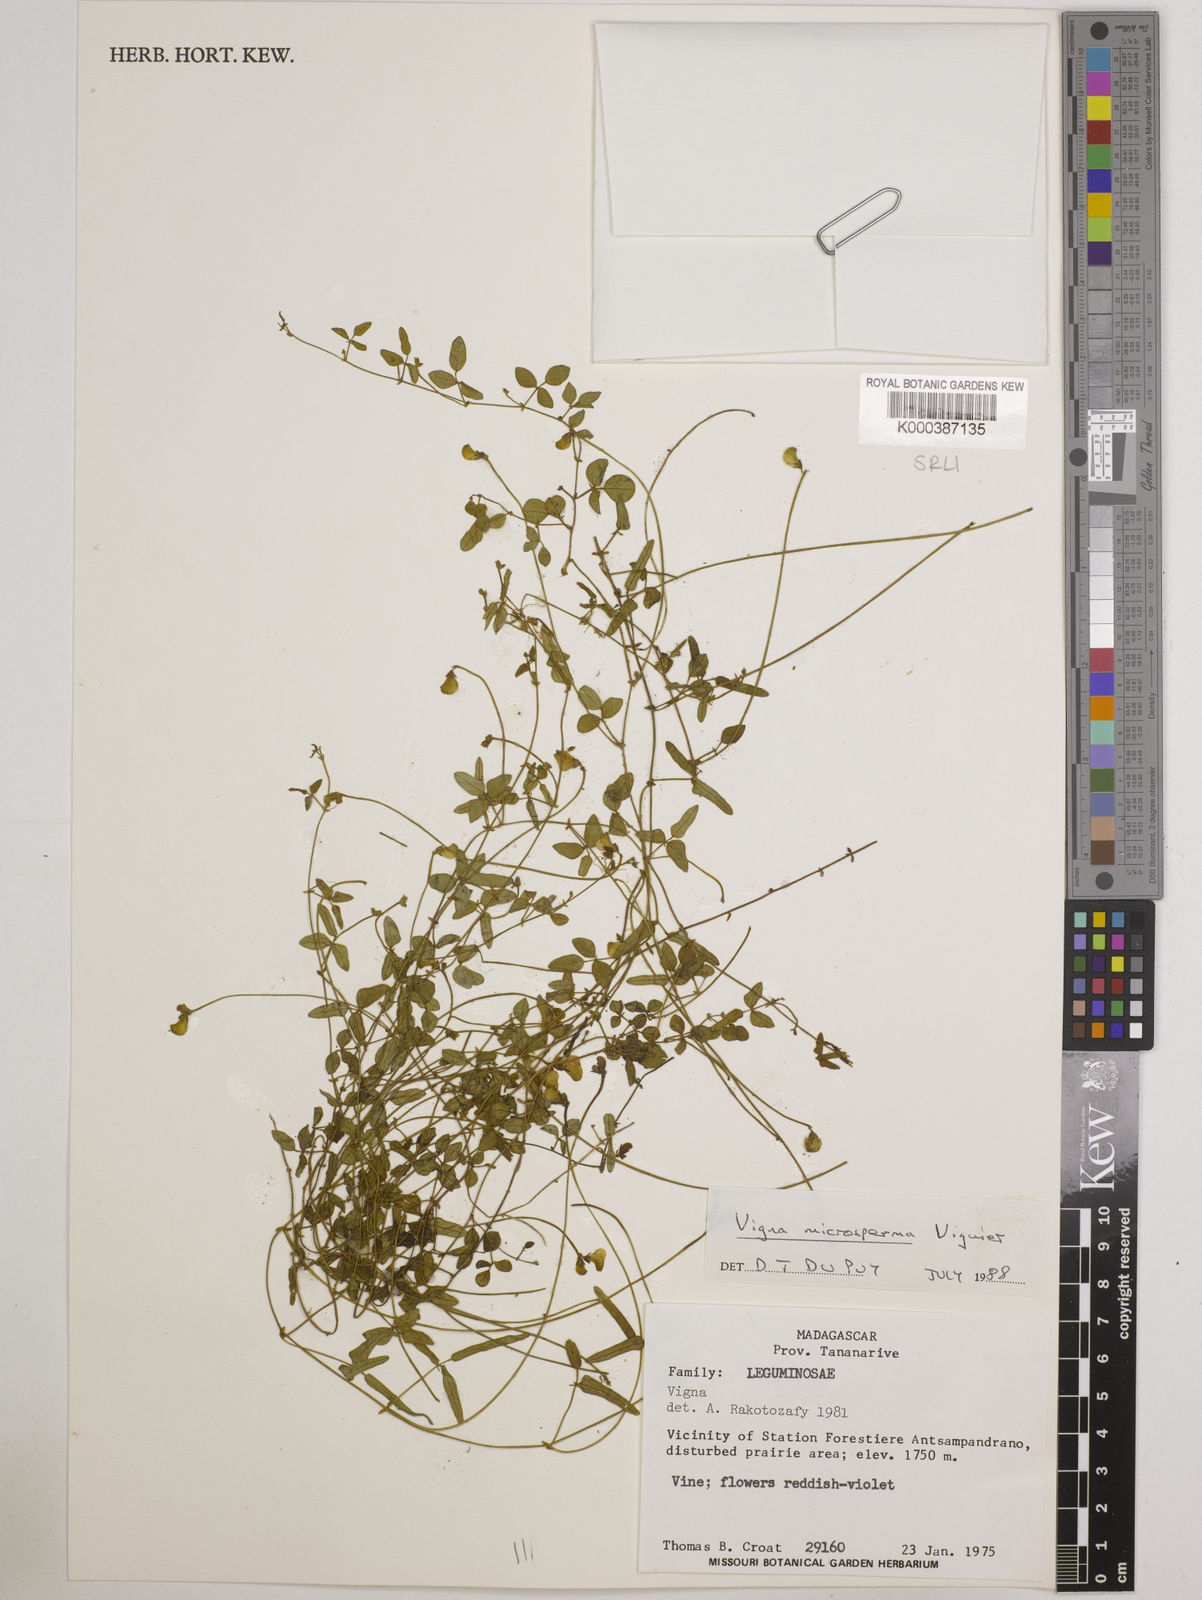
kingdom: Plantae
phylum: Tracheophyta
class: Magnoliopsida
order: Fabales
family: Fabaceae
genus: Vigna
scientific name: Vigna microsperma
